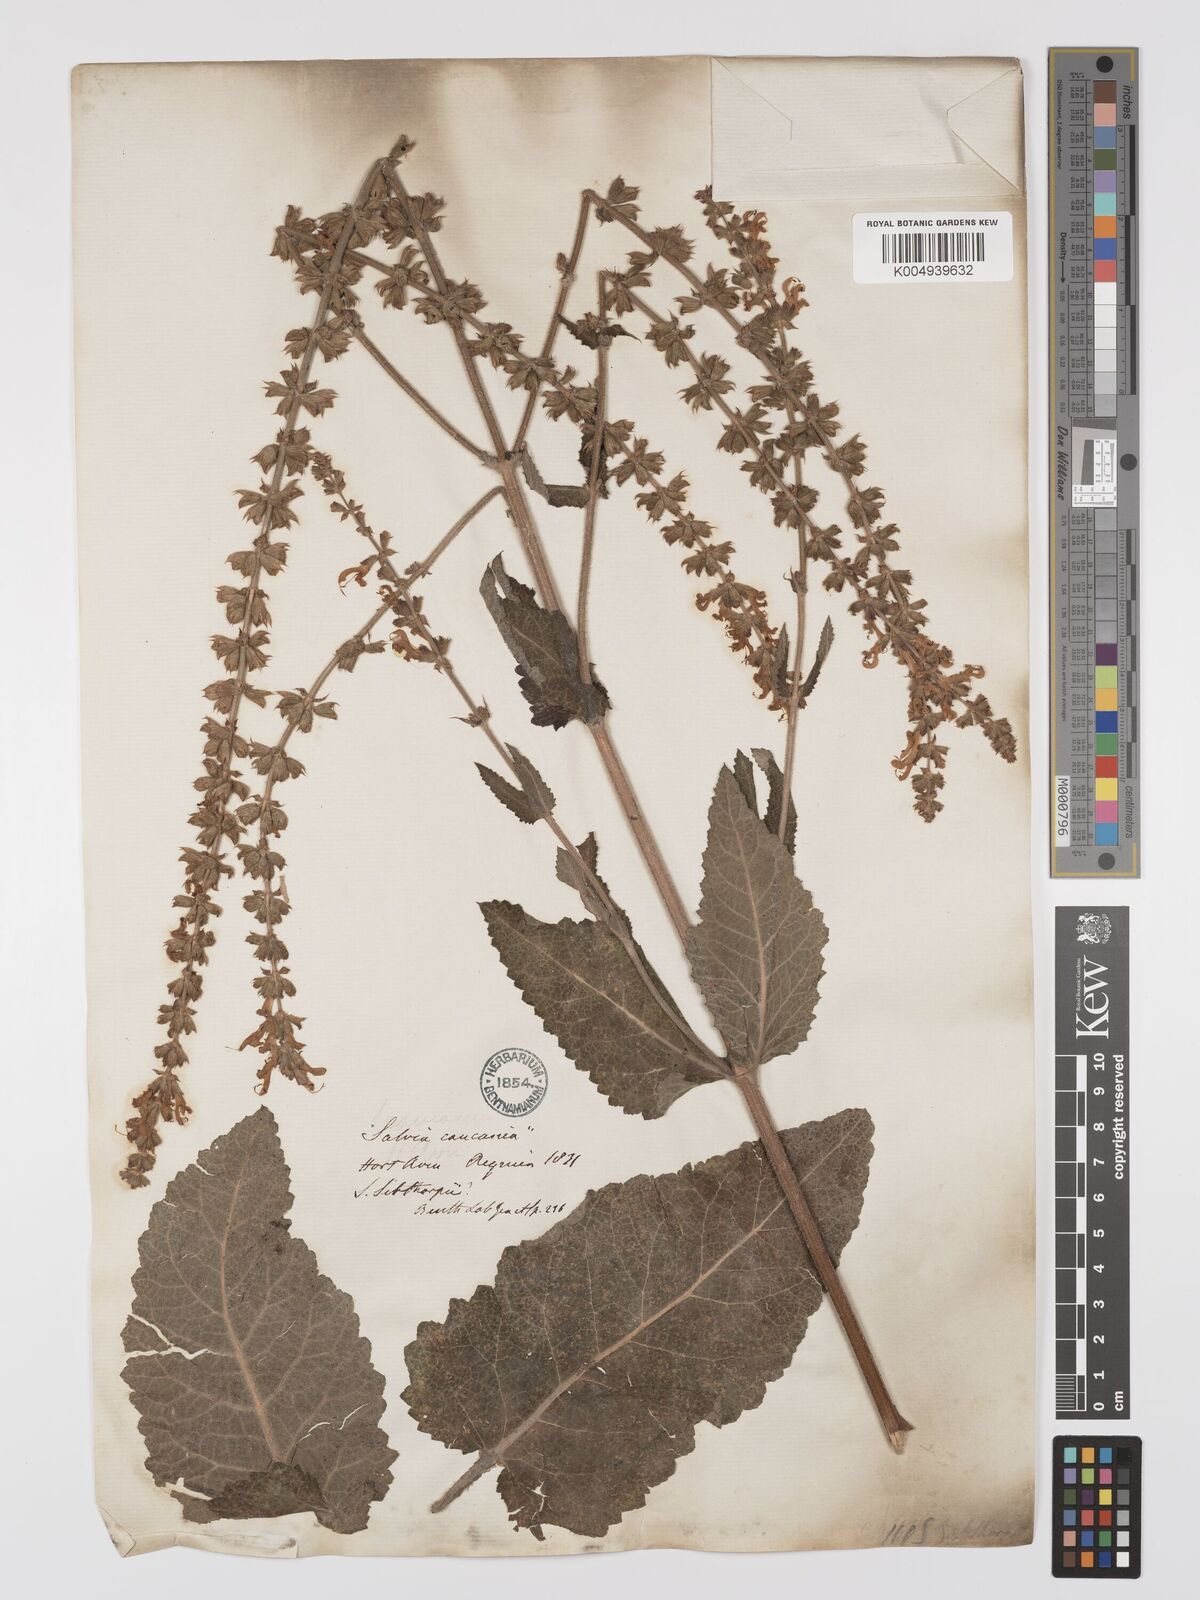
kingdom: Plantae
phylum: Tracheophyta
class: Magnoliopsida
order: Lamiales
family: Lamiaceae
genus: Salvia
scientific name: Salvia
